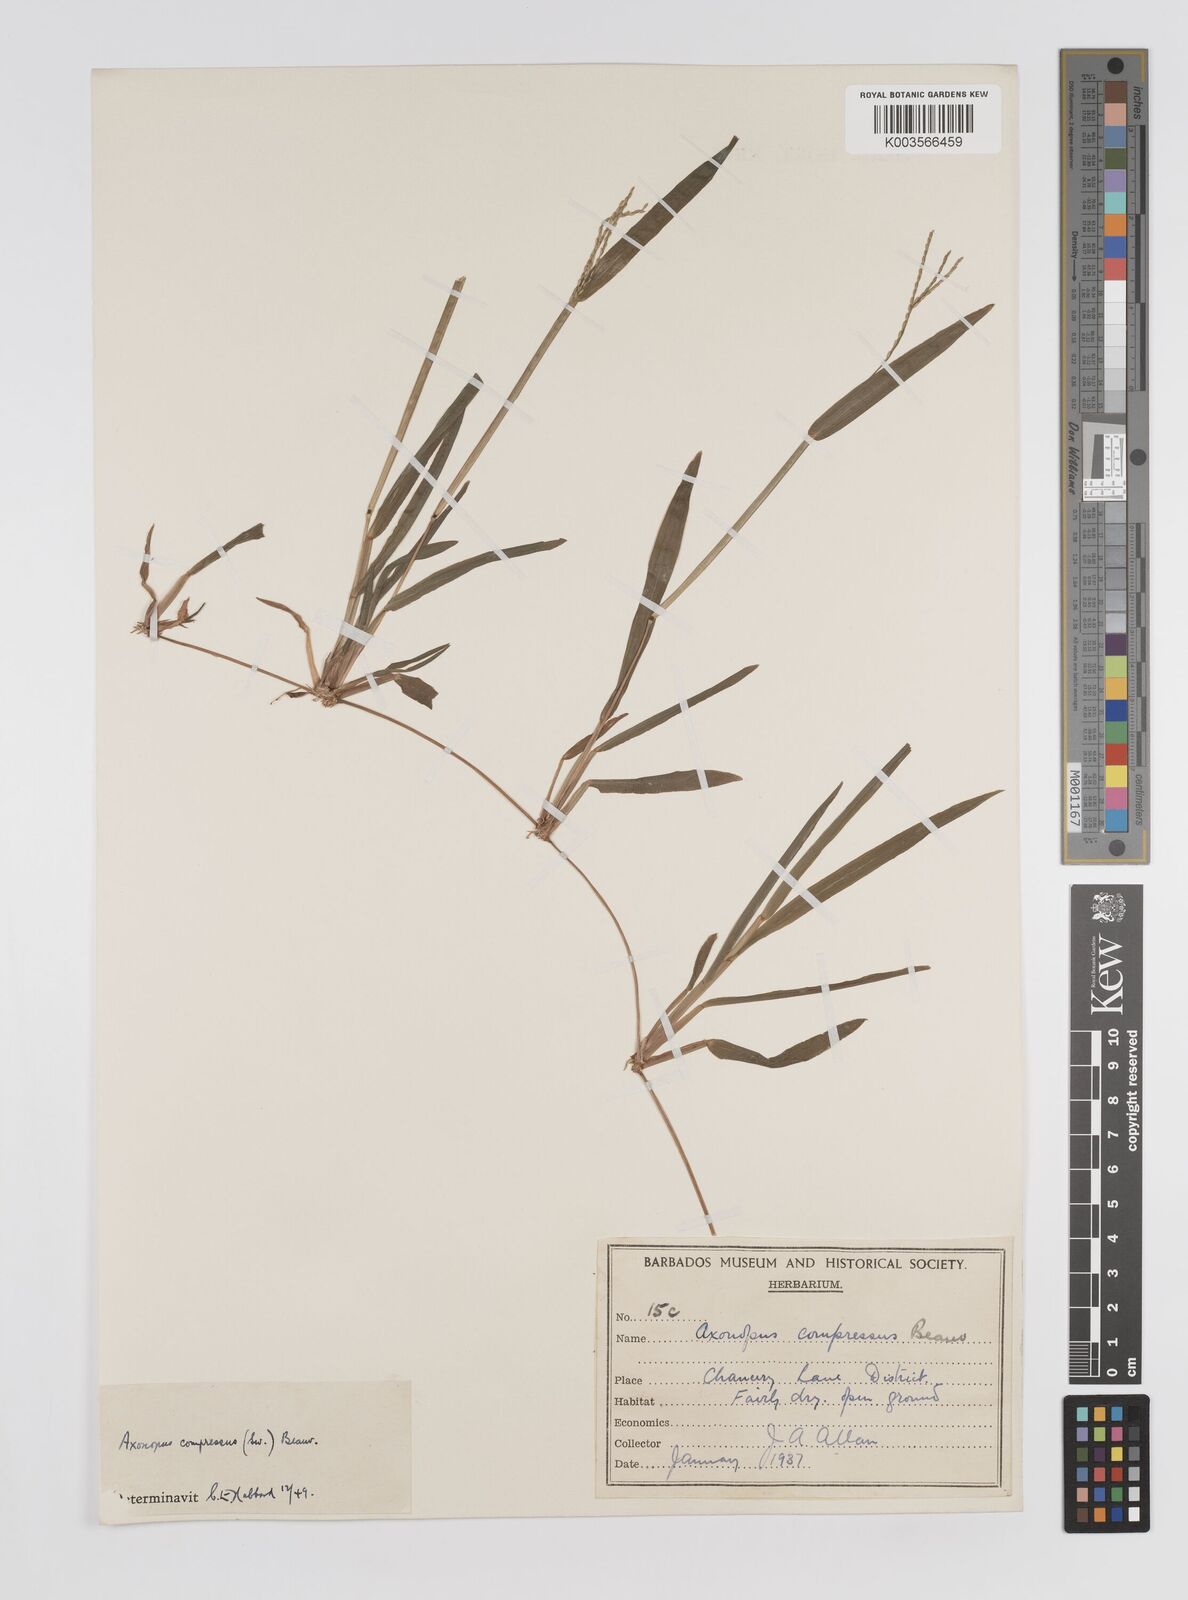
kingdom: Plantae
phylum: Tracheophyta
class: Liliopsida
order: Poales
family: Poaceae
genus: Axonopus
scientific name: Axonopus compressus
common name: American carpet grass
